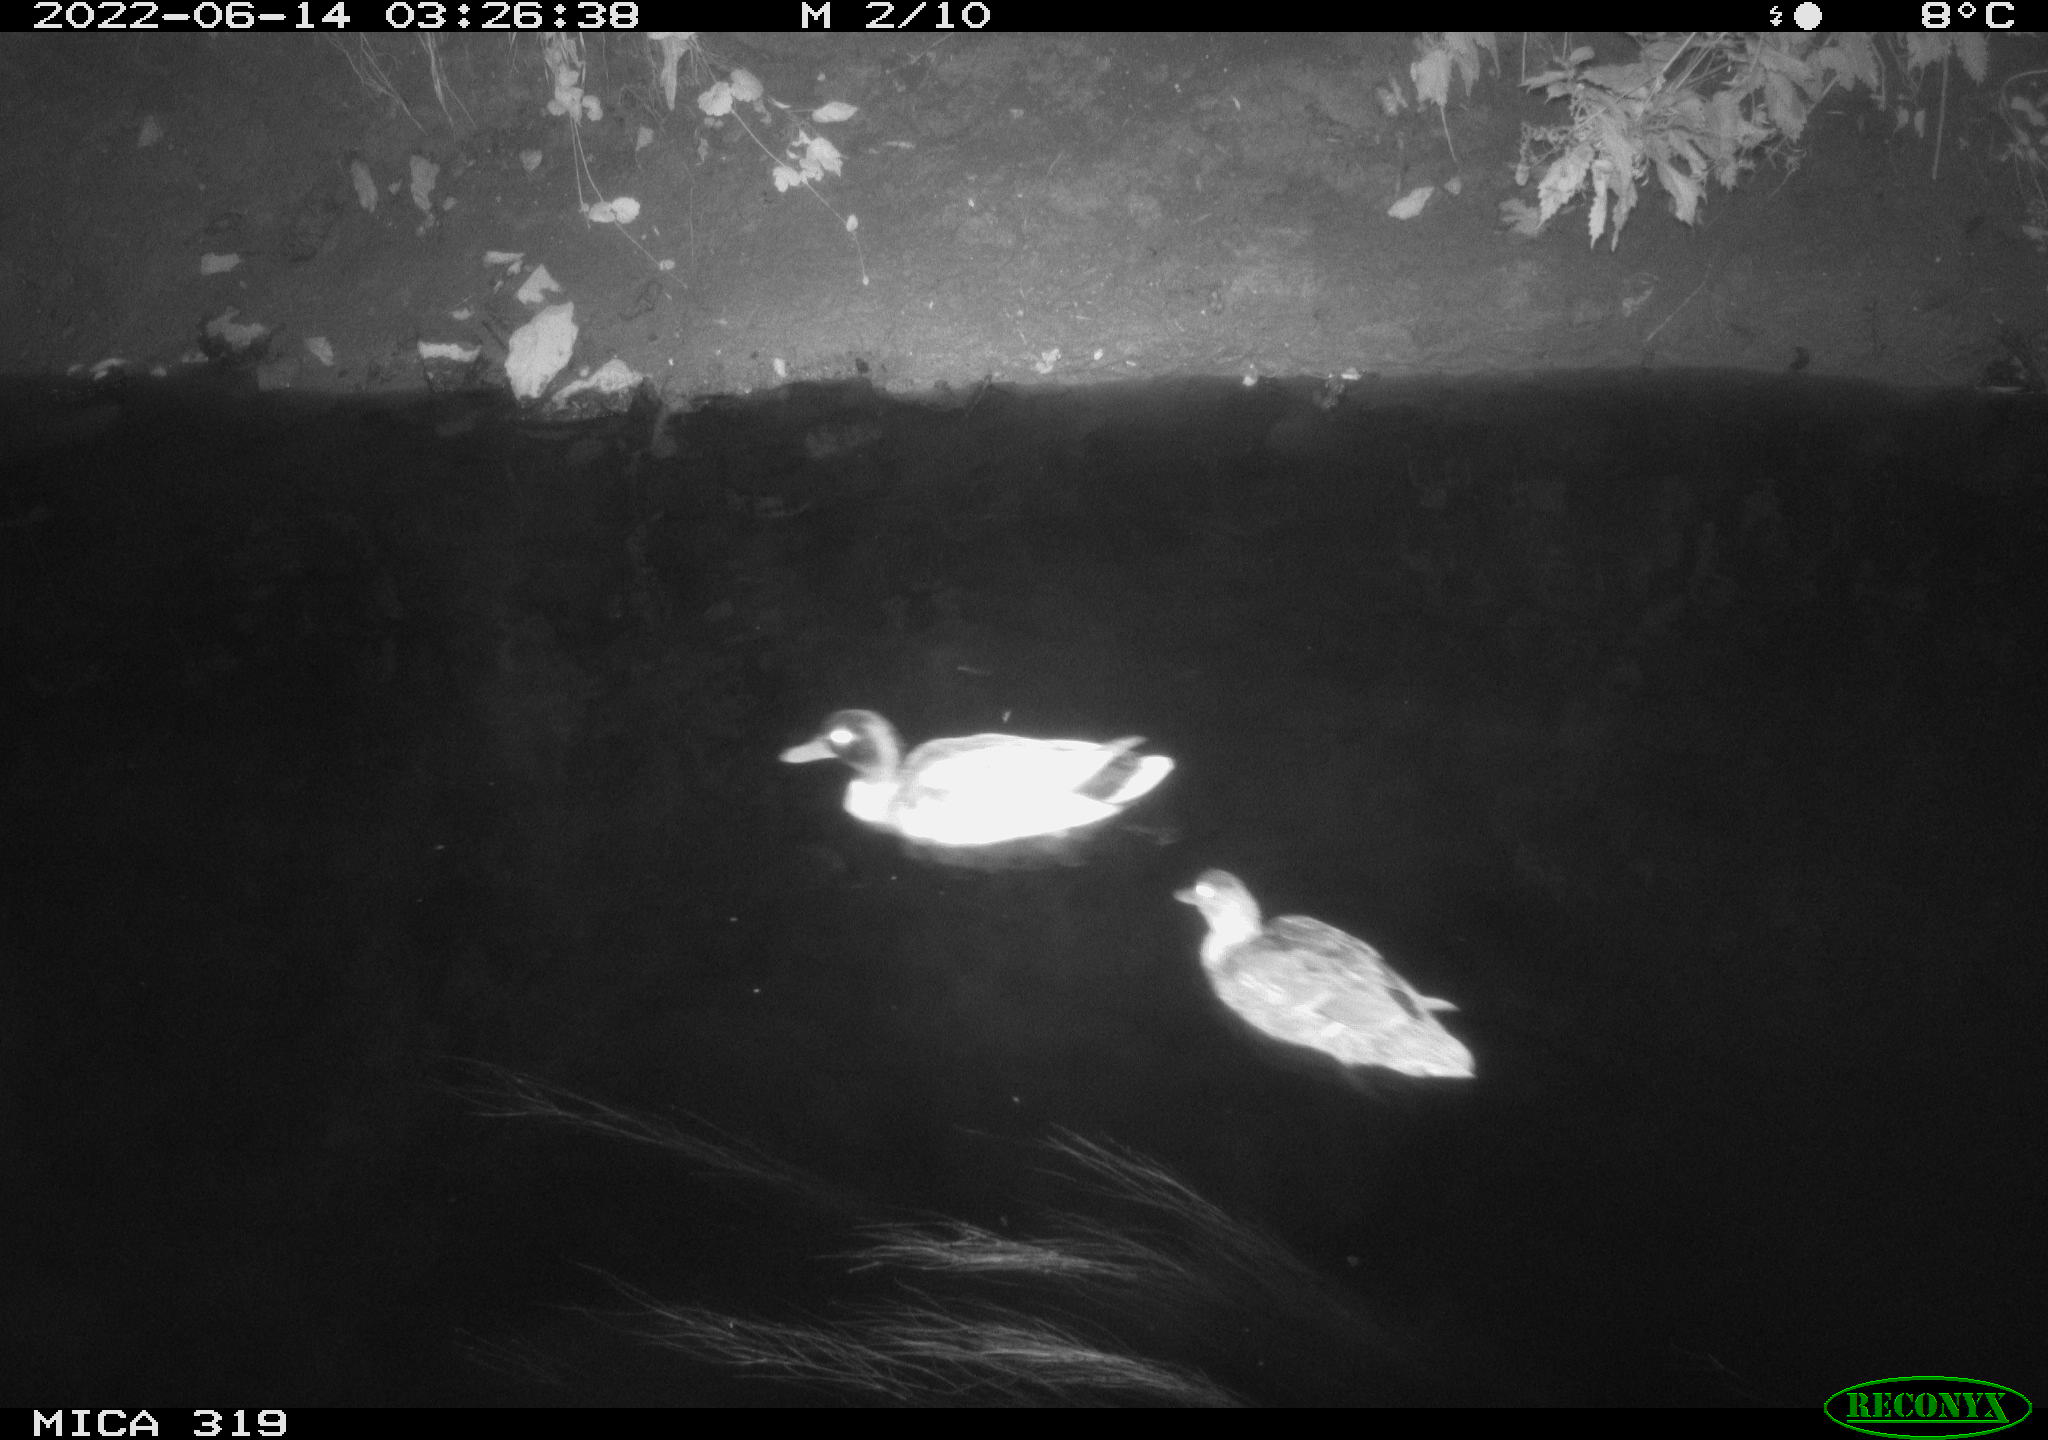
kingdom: Animalia
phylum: Chordata
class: Aves
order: Anseriformes
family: Anatidae
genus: Anas
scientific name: Anas
